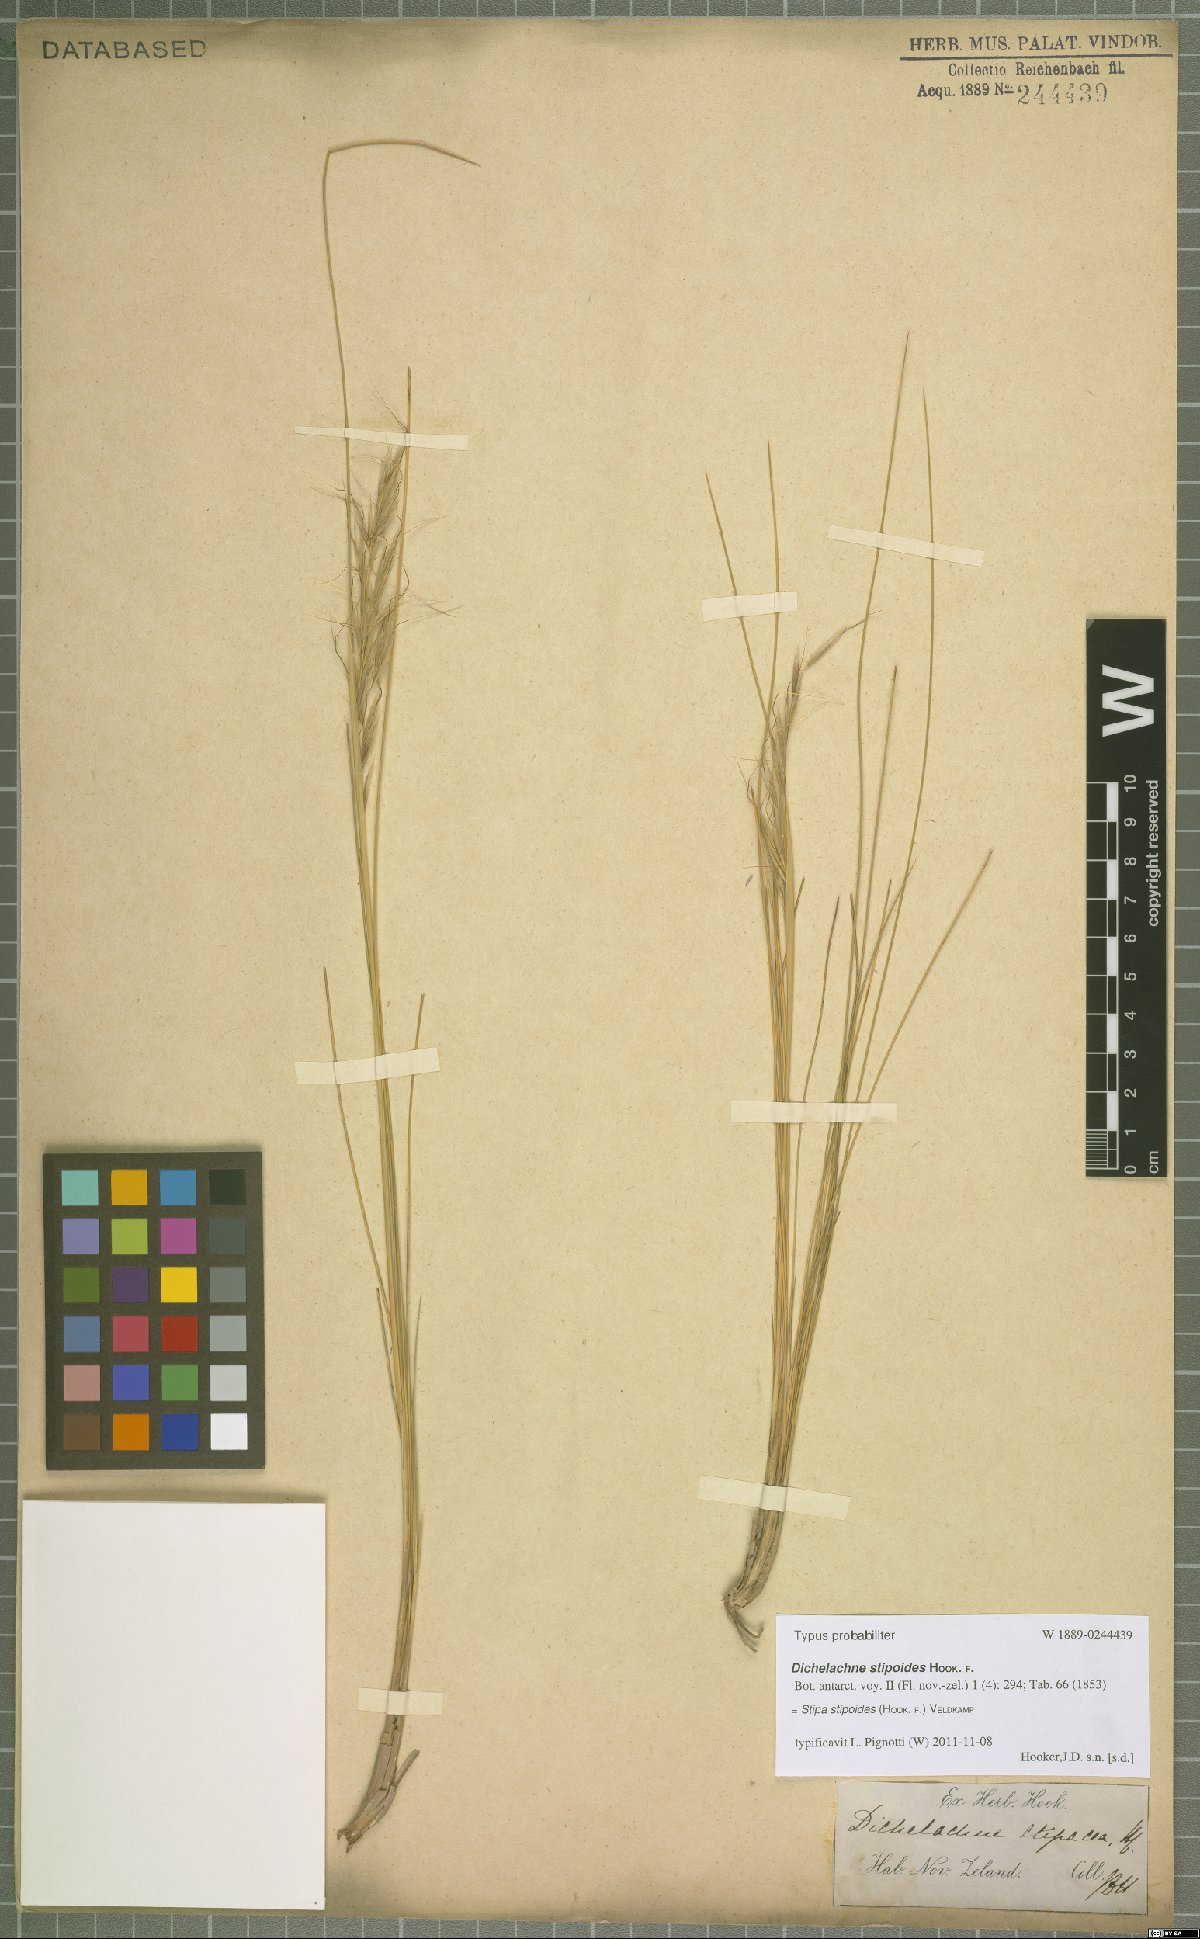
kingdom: Plantae
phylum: Tracheophyta
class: Liliopsida
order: Poales
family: Poaceae
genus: Austrostipa
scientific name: Austrostipa stipoides
